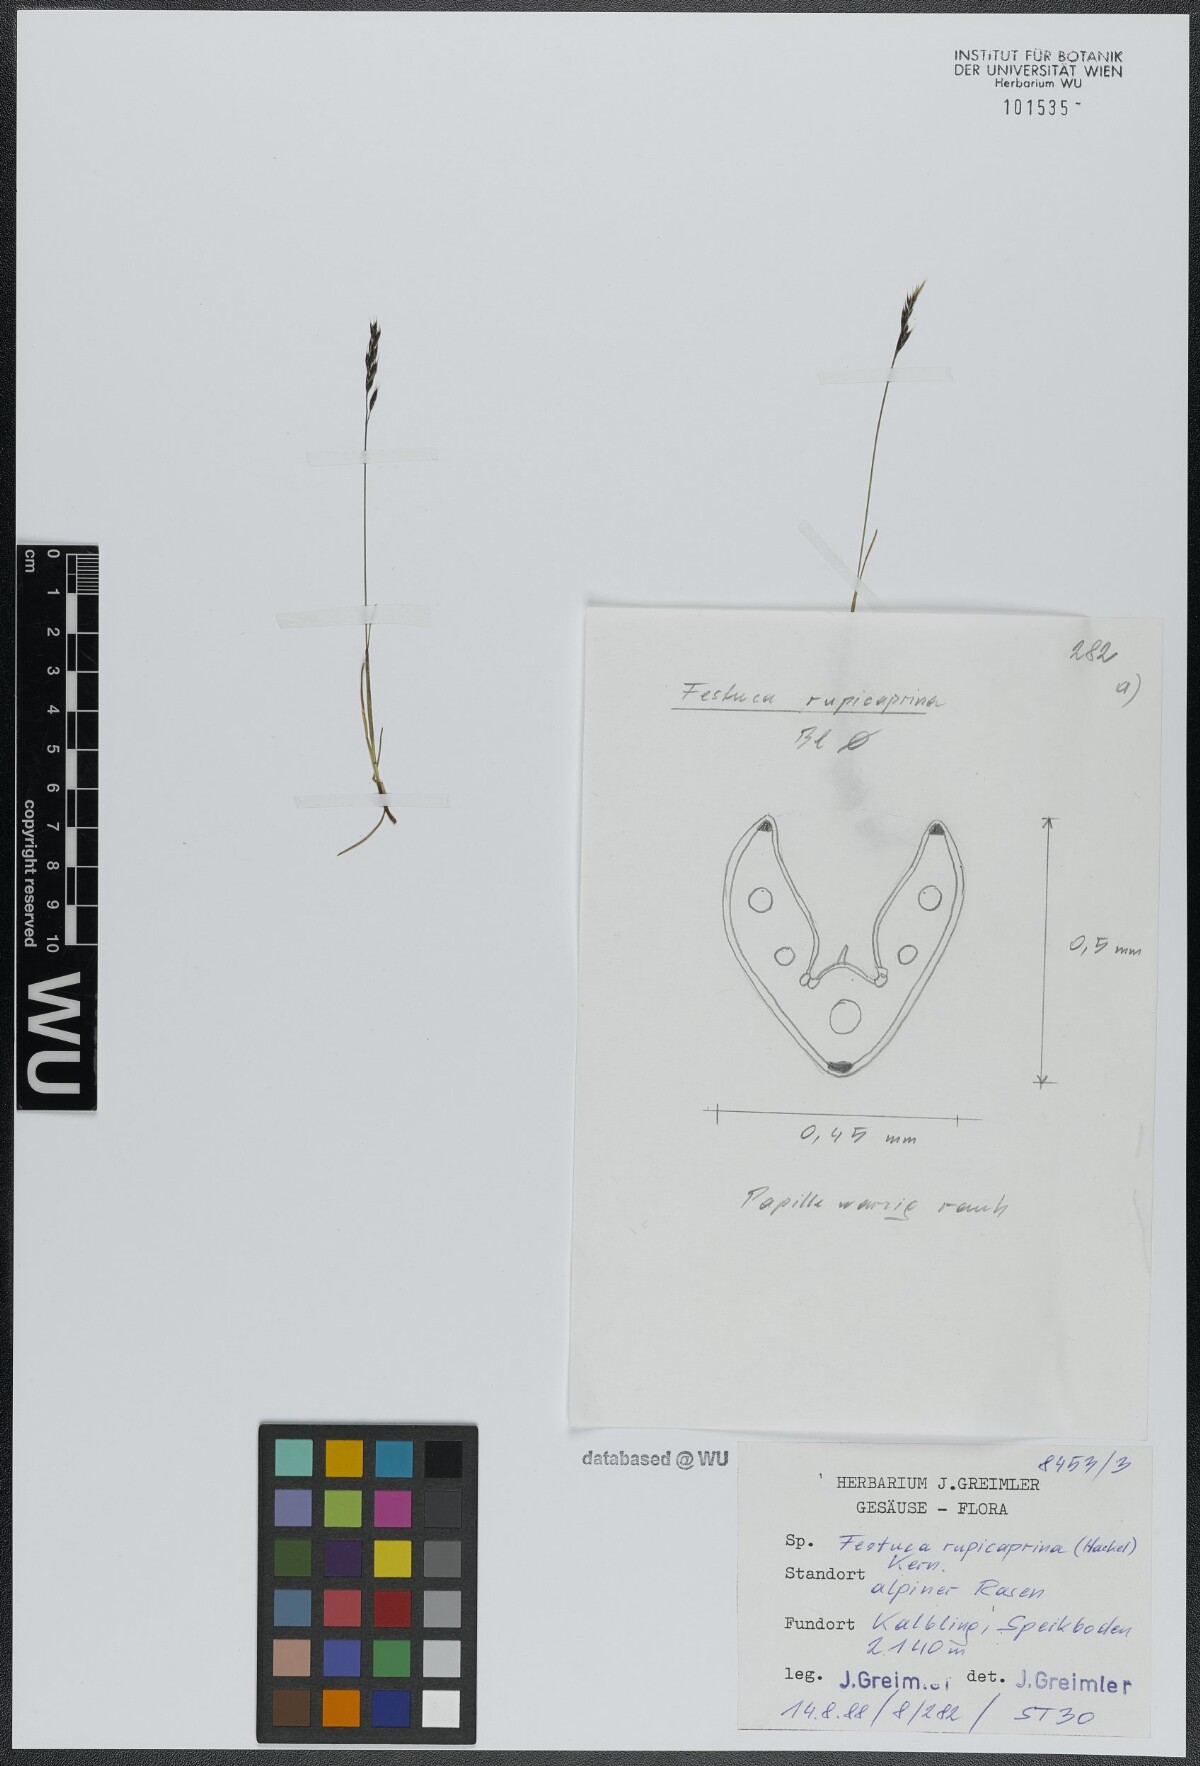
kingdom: Plantae
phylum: Tracheophyta
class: Liliopsida
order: Poales
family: Poaceae
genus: Festuca
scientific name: Festuca rupicaprina
